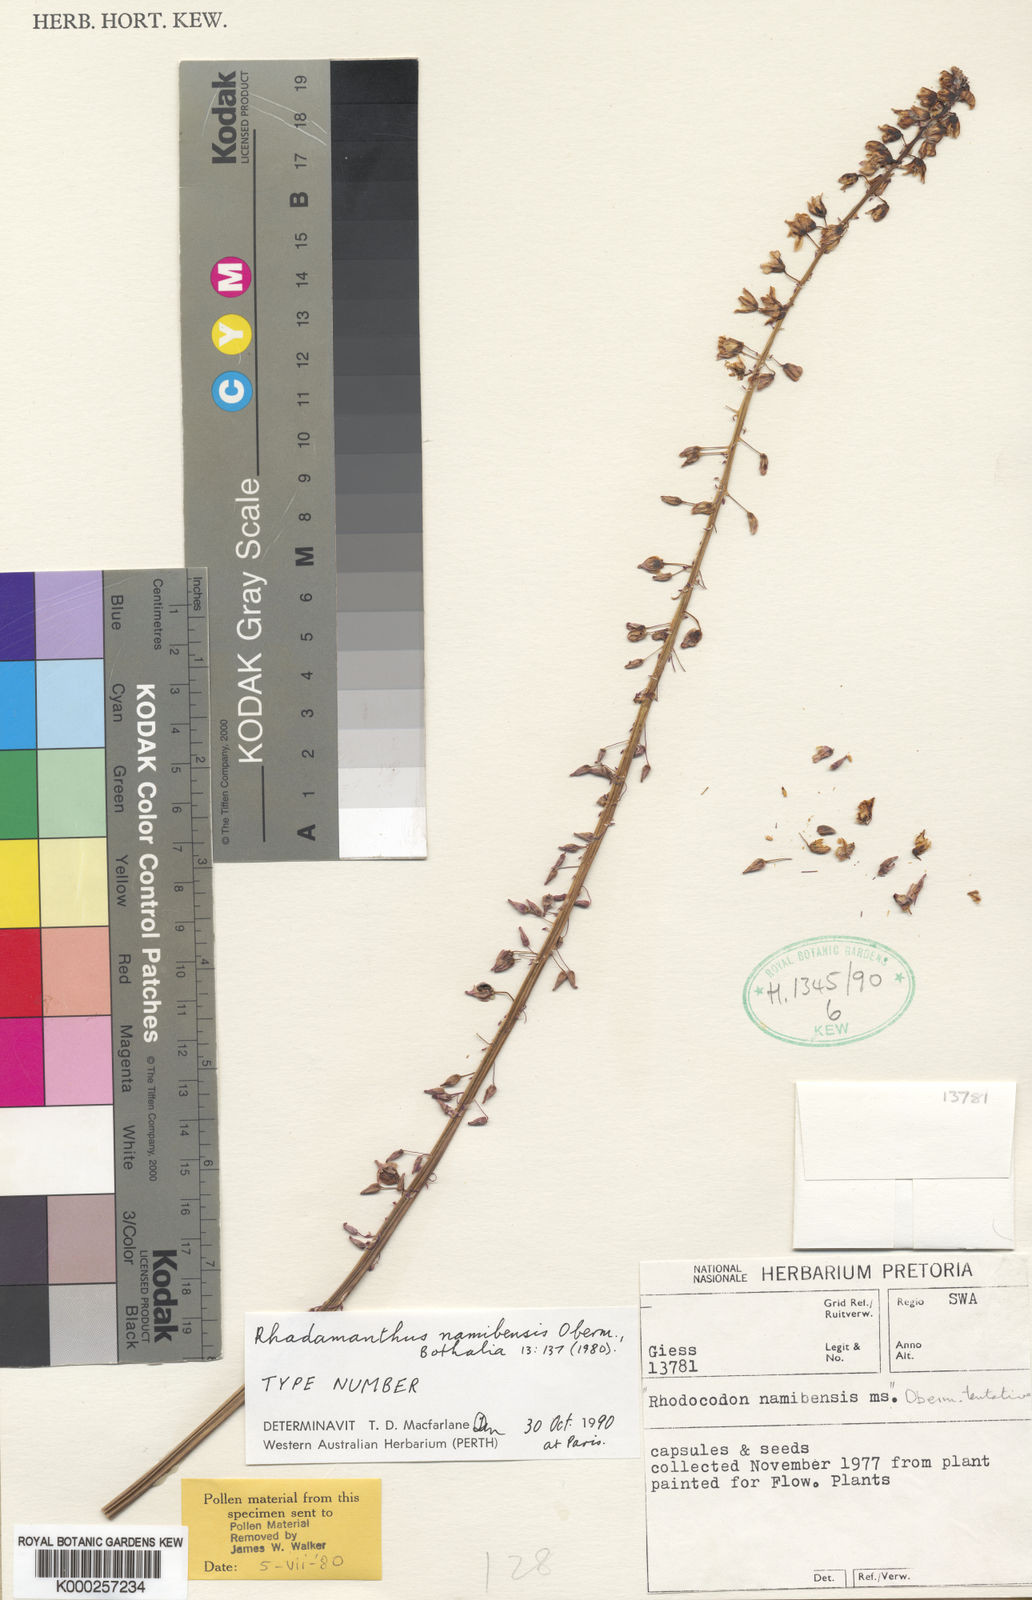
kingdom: Plantae
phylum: Tracheophyta
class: Liliopsida
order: Asparagales
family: Asparagaceae
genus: Drimia
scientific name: Drimia namibensis
